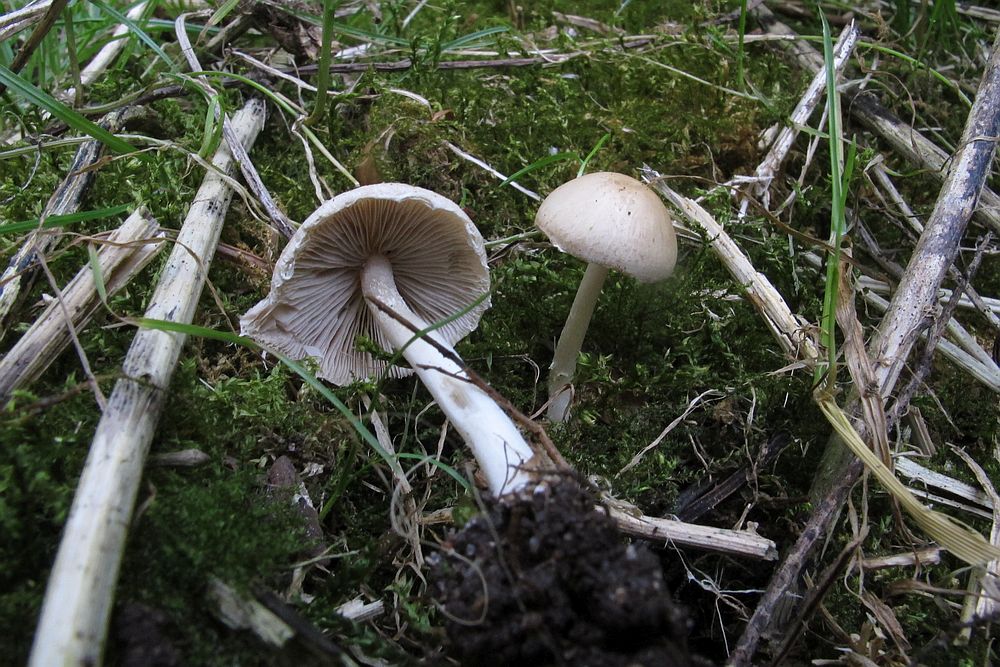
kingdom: Fungi
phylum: Basidiomycota
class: Agaricomycetes
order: Agaricales
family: Psathyrellaceae
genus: Candolleomyces
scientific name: Candolleomyces candolleanus
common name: Candolles mørkhat
